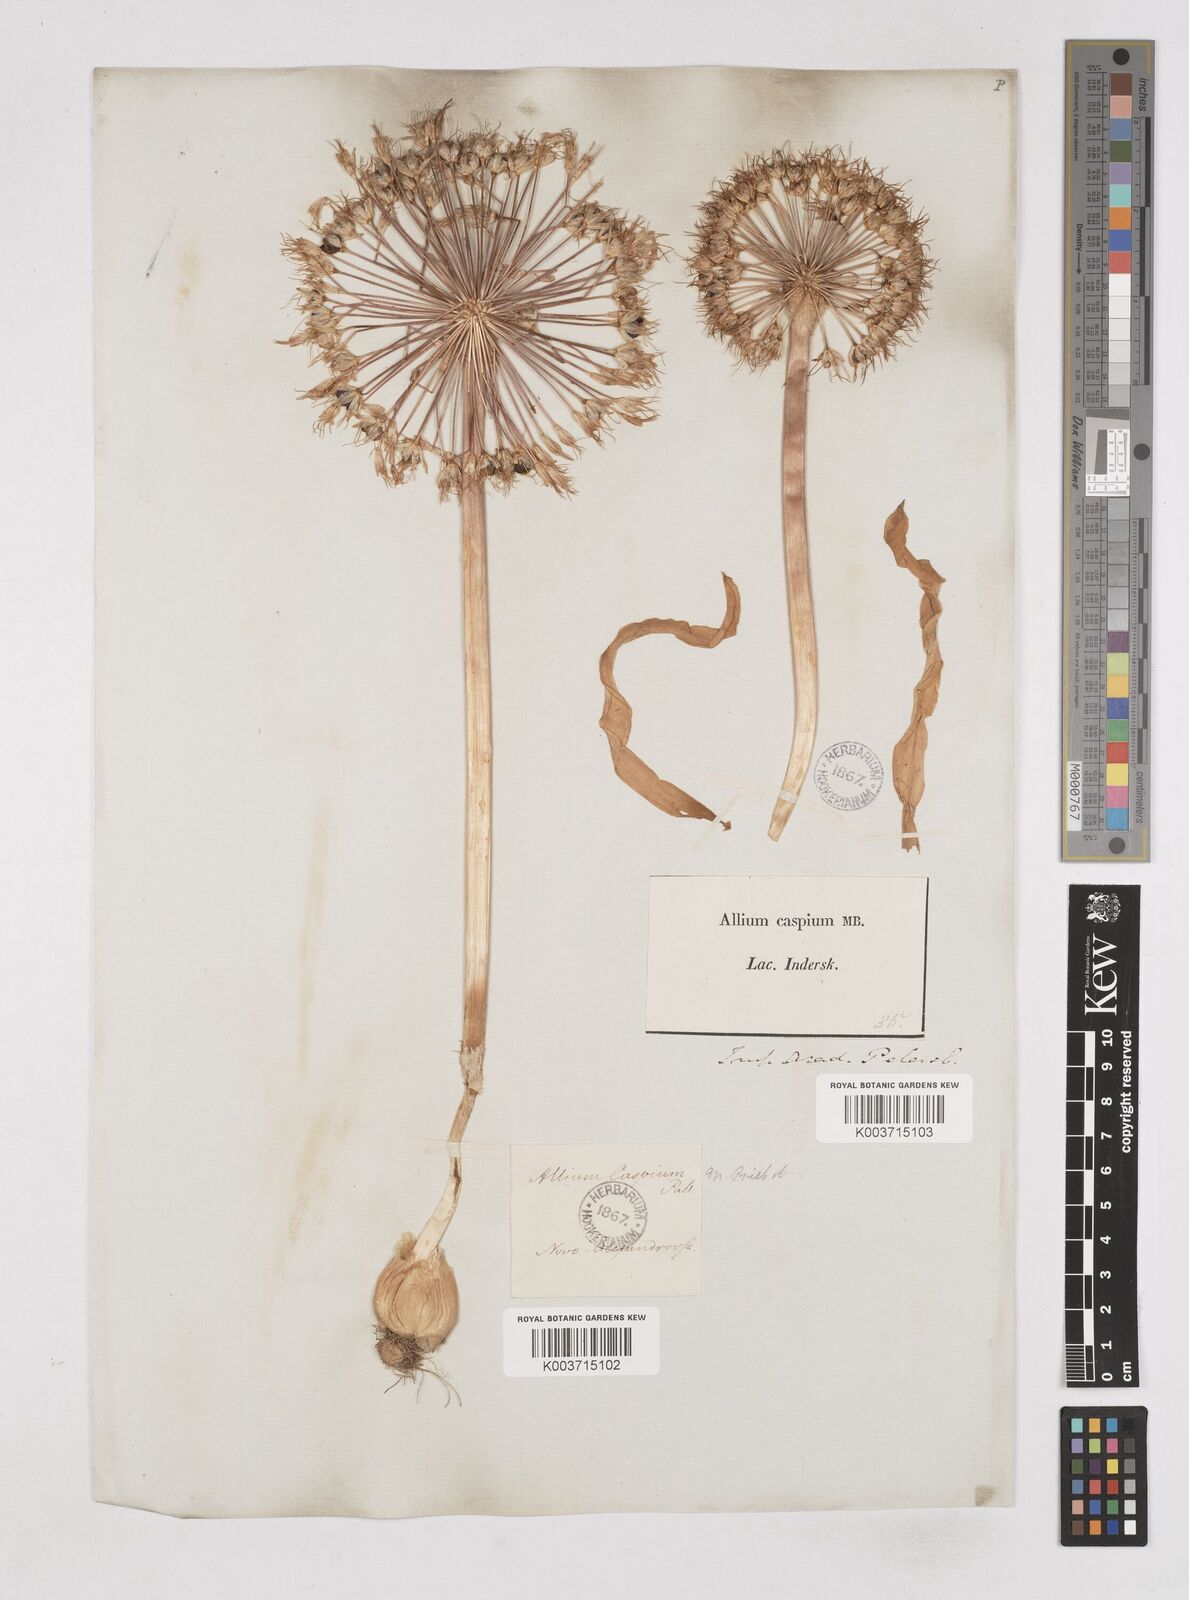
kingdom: Plantae
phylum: Tracheophyta
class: Liliopsida
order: Asparagales
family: Amaryllidaceae
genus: Allium
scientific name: Allium caspium
